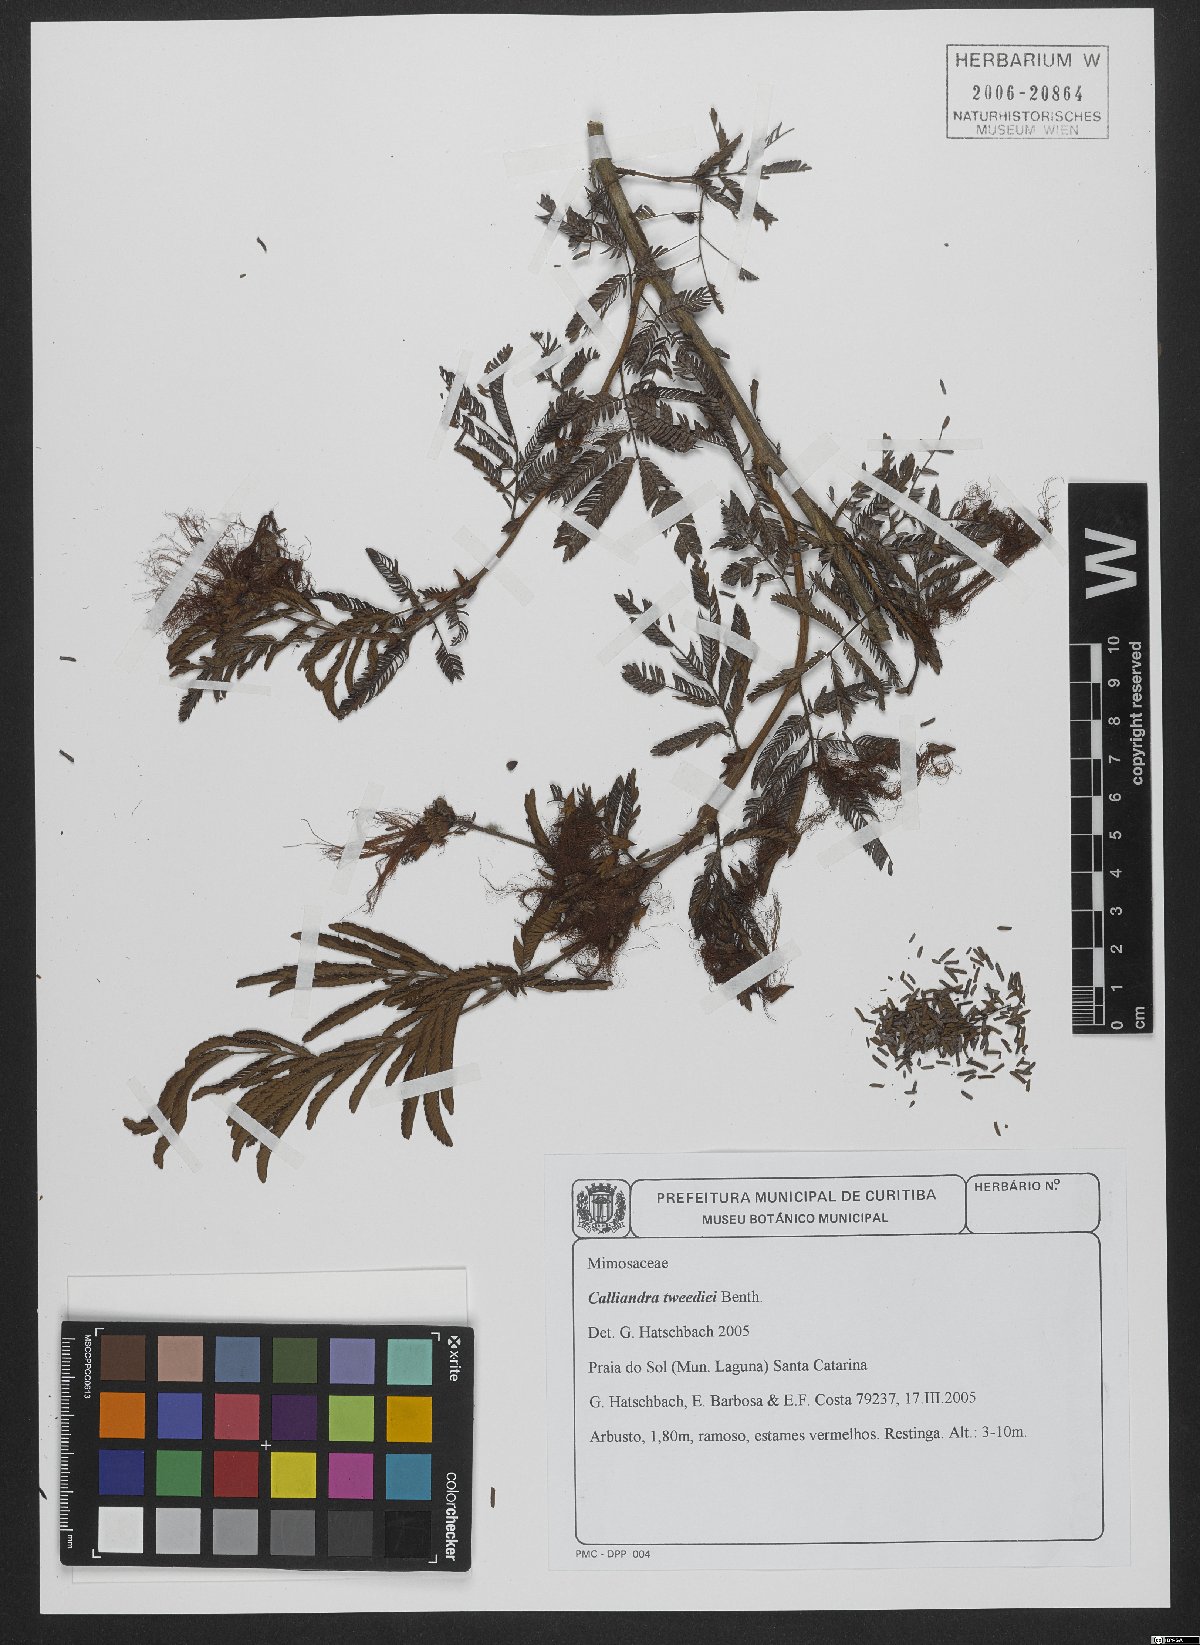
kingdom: Plantae
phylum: Tracheophyta
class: Magnoliopsida
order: Fabales
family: Fabaceae
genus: Calliandra
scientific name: Calliandra tweedii
